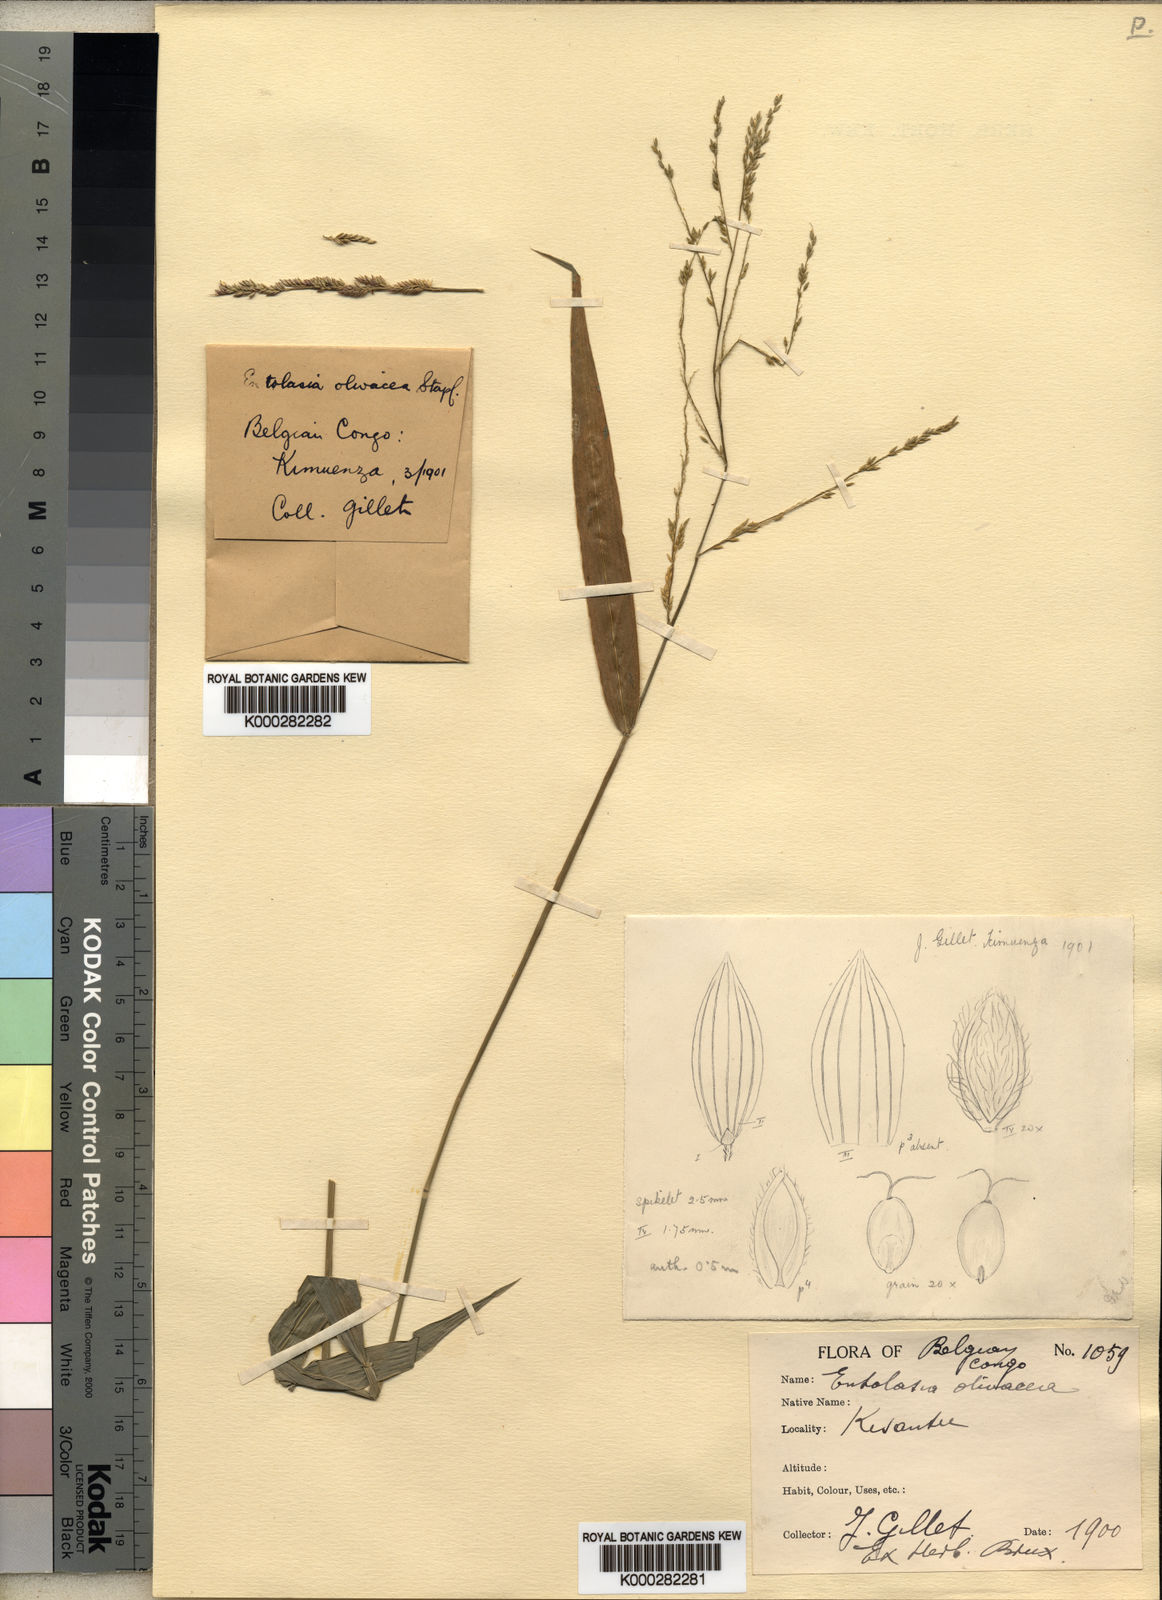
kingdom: Plantae
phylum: Tracheophyta
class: Liliopsida
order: Poales
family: Poaceae
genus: Entolasia
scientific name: Entolasia olivacea
